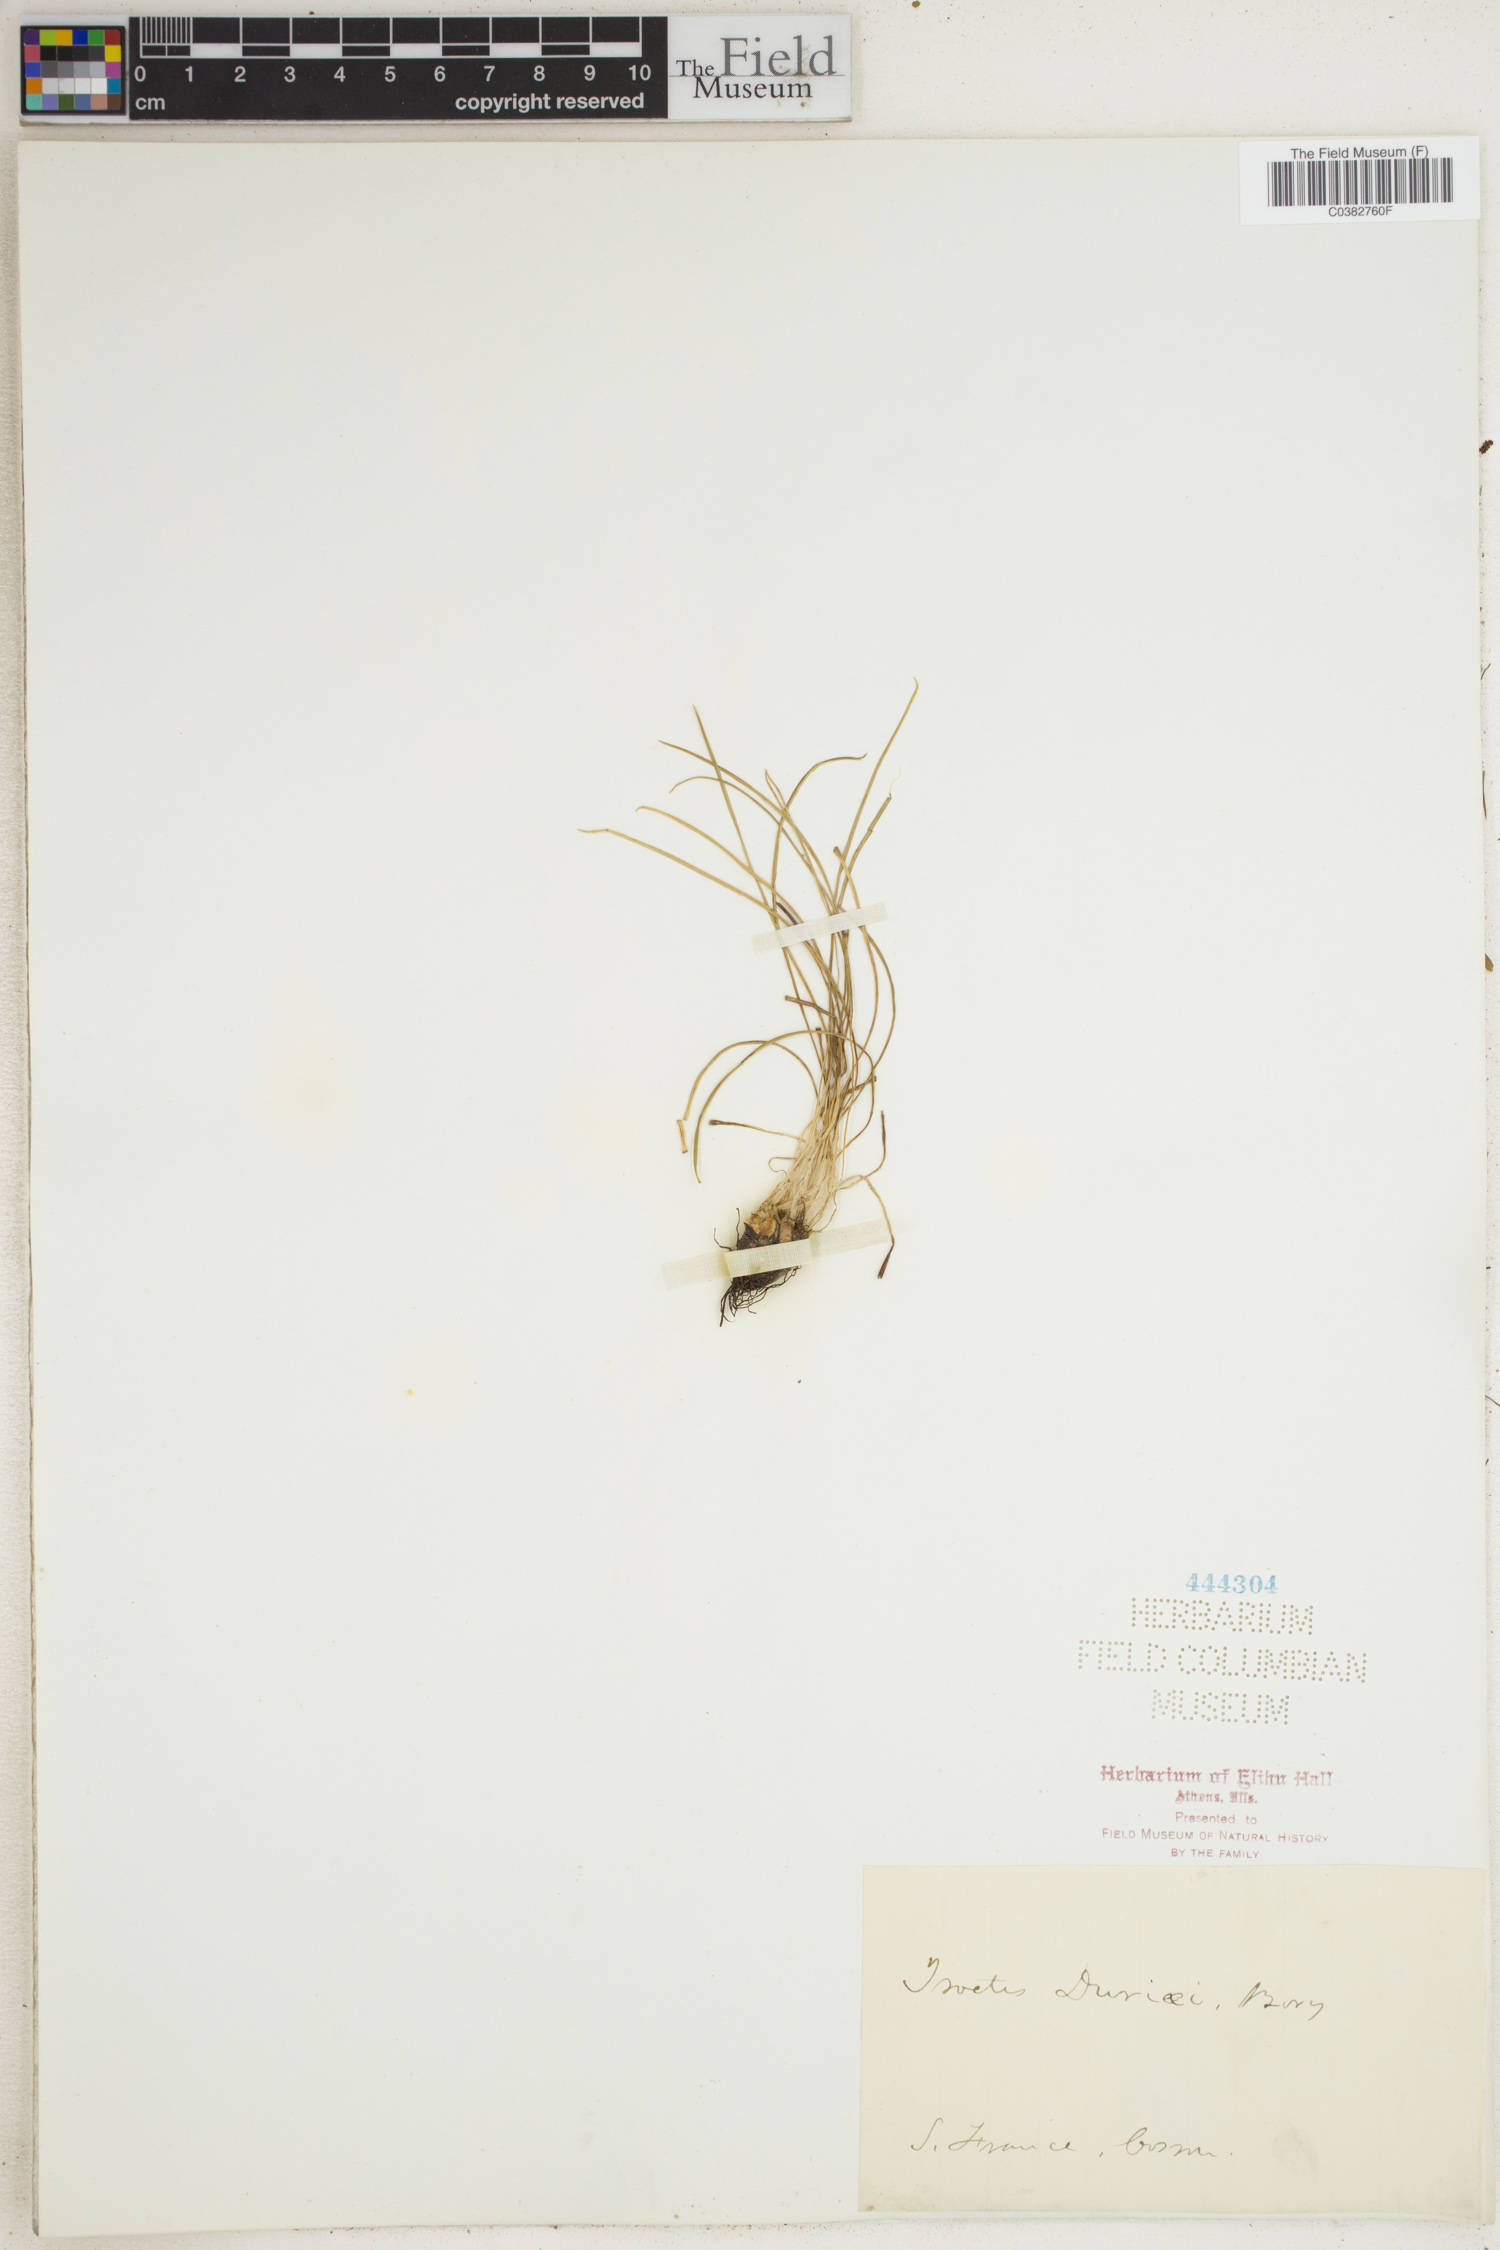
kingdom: Plantae
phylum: Tracheophyta
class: Lycopodiopsida
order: Isoetales
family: Isoetaceae
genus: Isoetes
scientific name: Isoetes duriei
